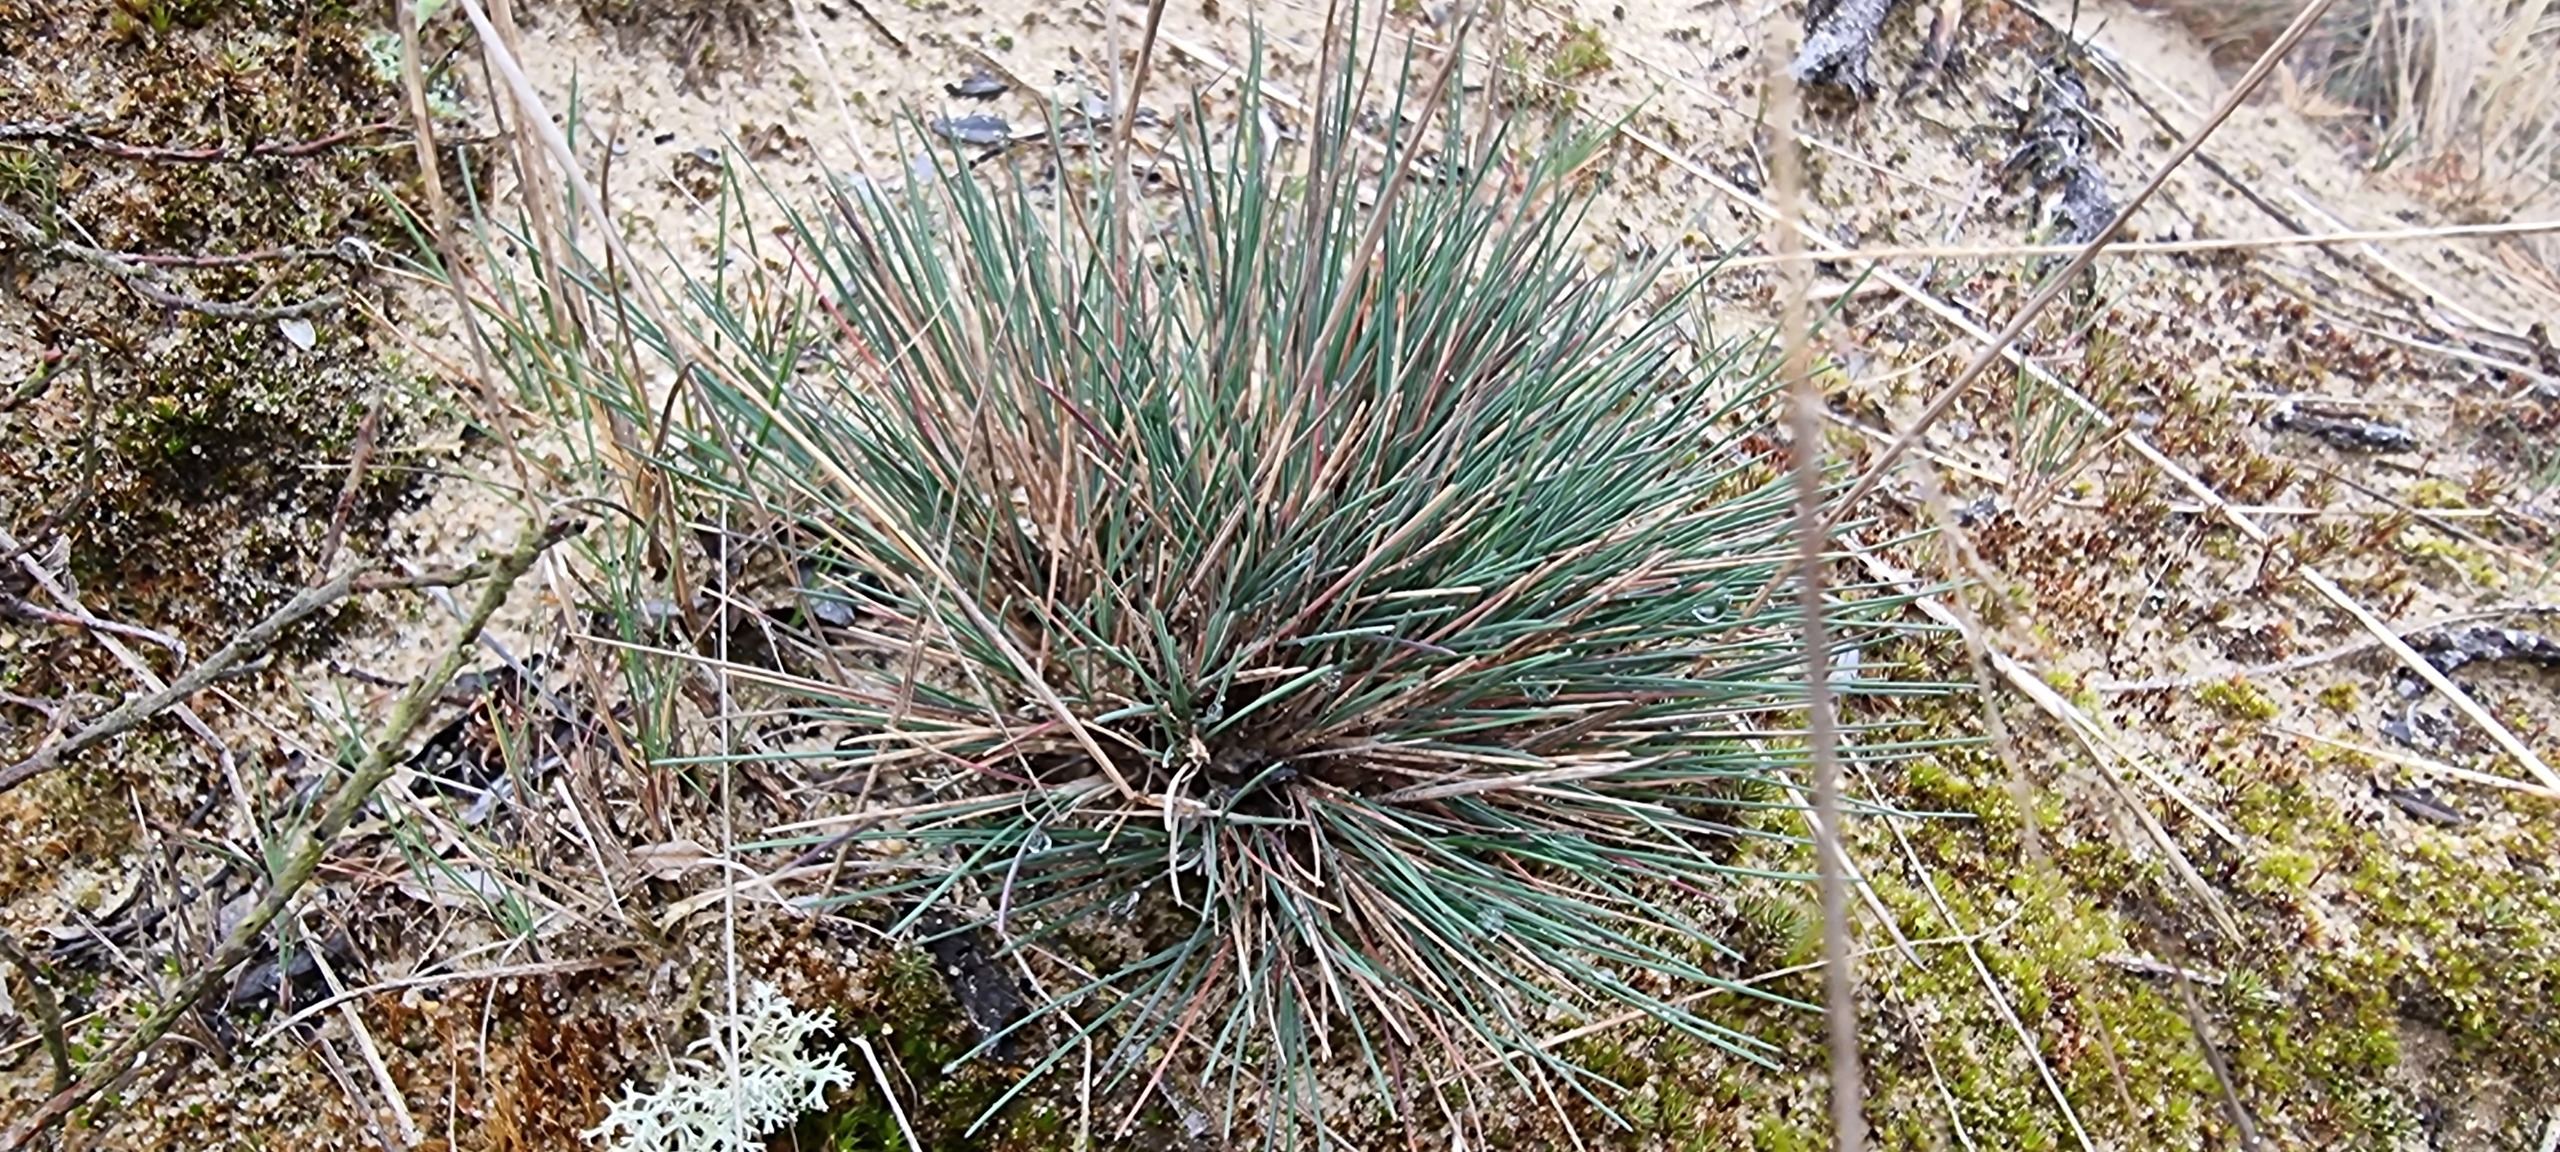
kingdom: Plantae
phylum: Tracheophyta
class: Liliopsida
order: Poales
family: Poaceae
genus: Corynephorus
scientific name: Corynephorus canescens
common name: Sandskæg
